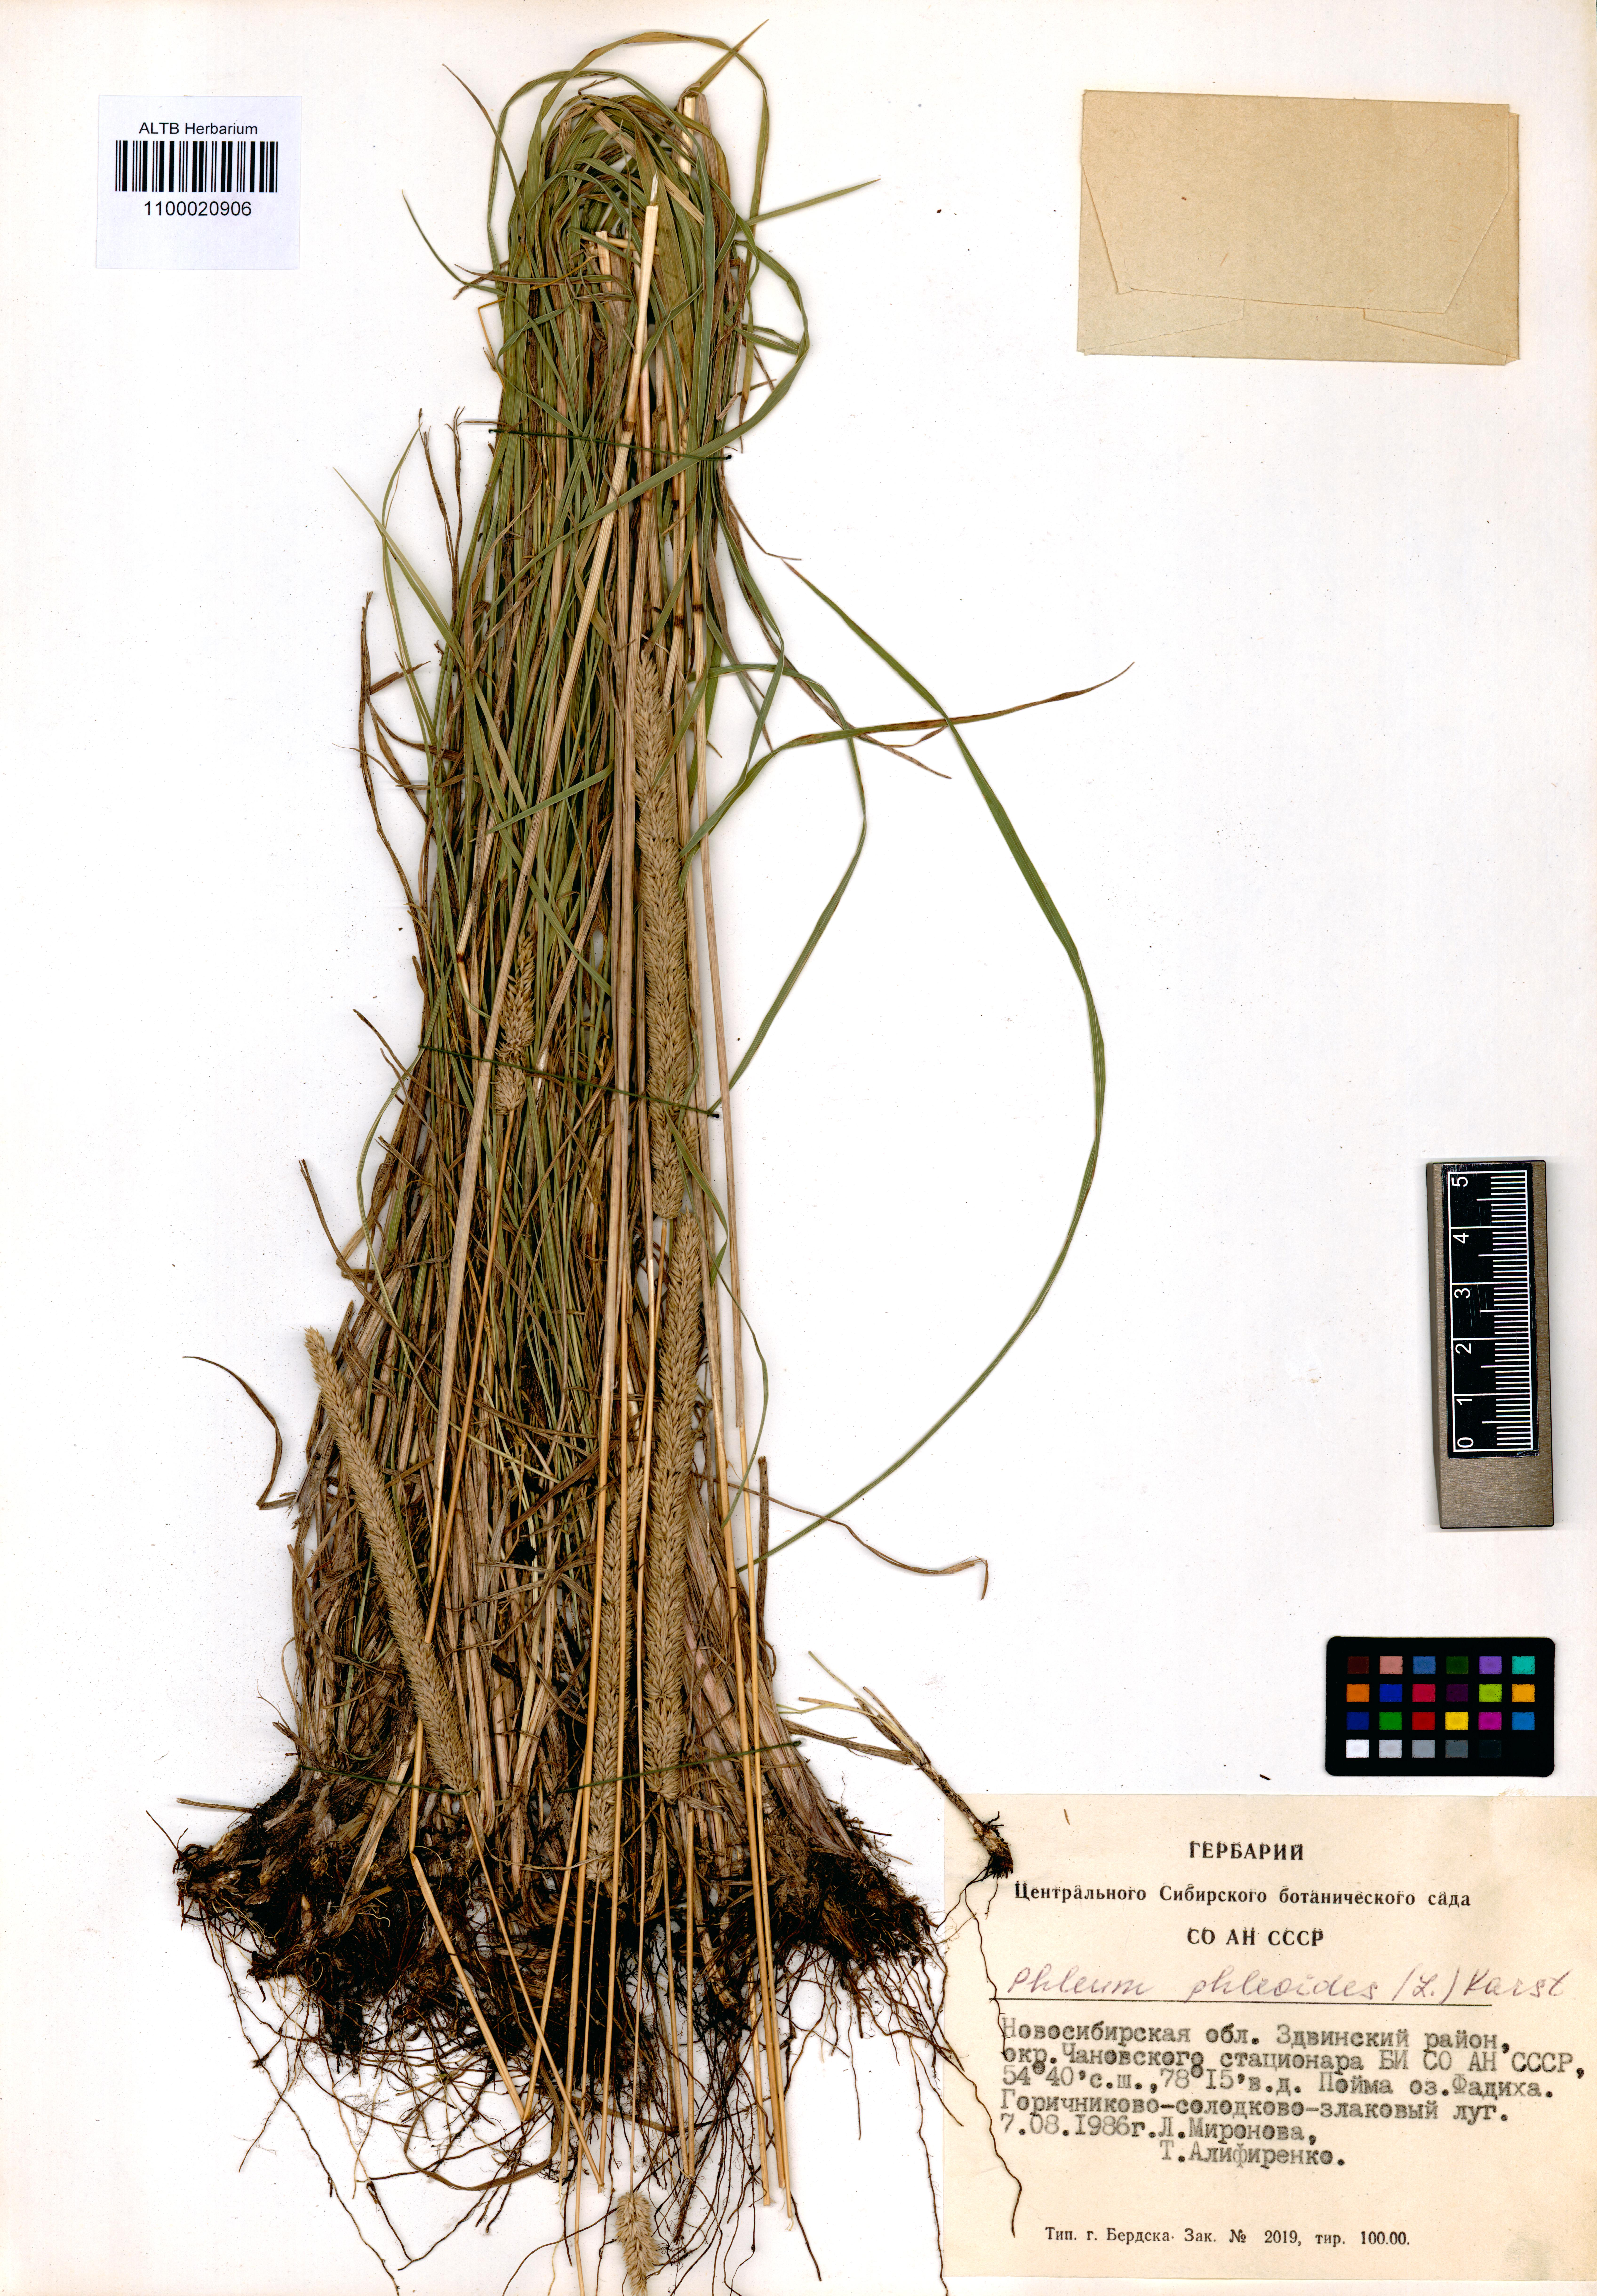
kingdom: Plantae
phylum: Tracheophyta
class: Liliopsida
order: Poales
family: Poaceae
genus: Phleum
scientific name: Phleum phleoides
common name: Purple-stem cat's-tail
